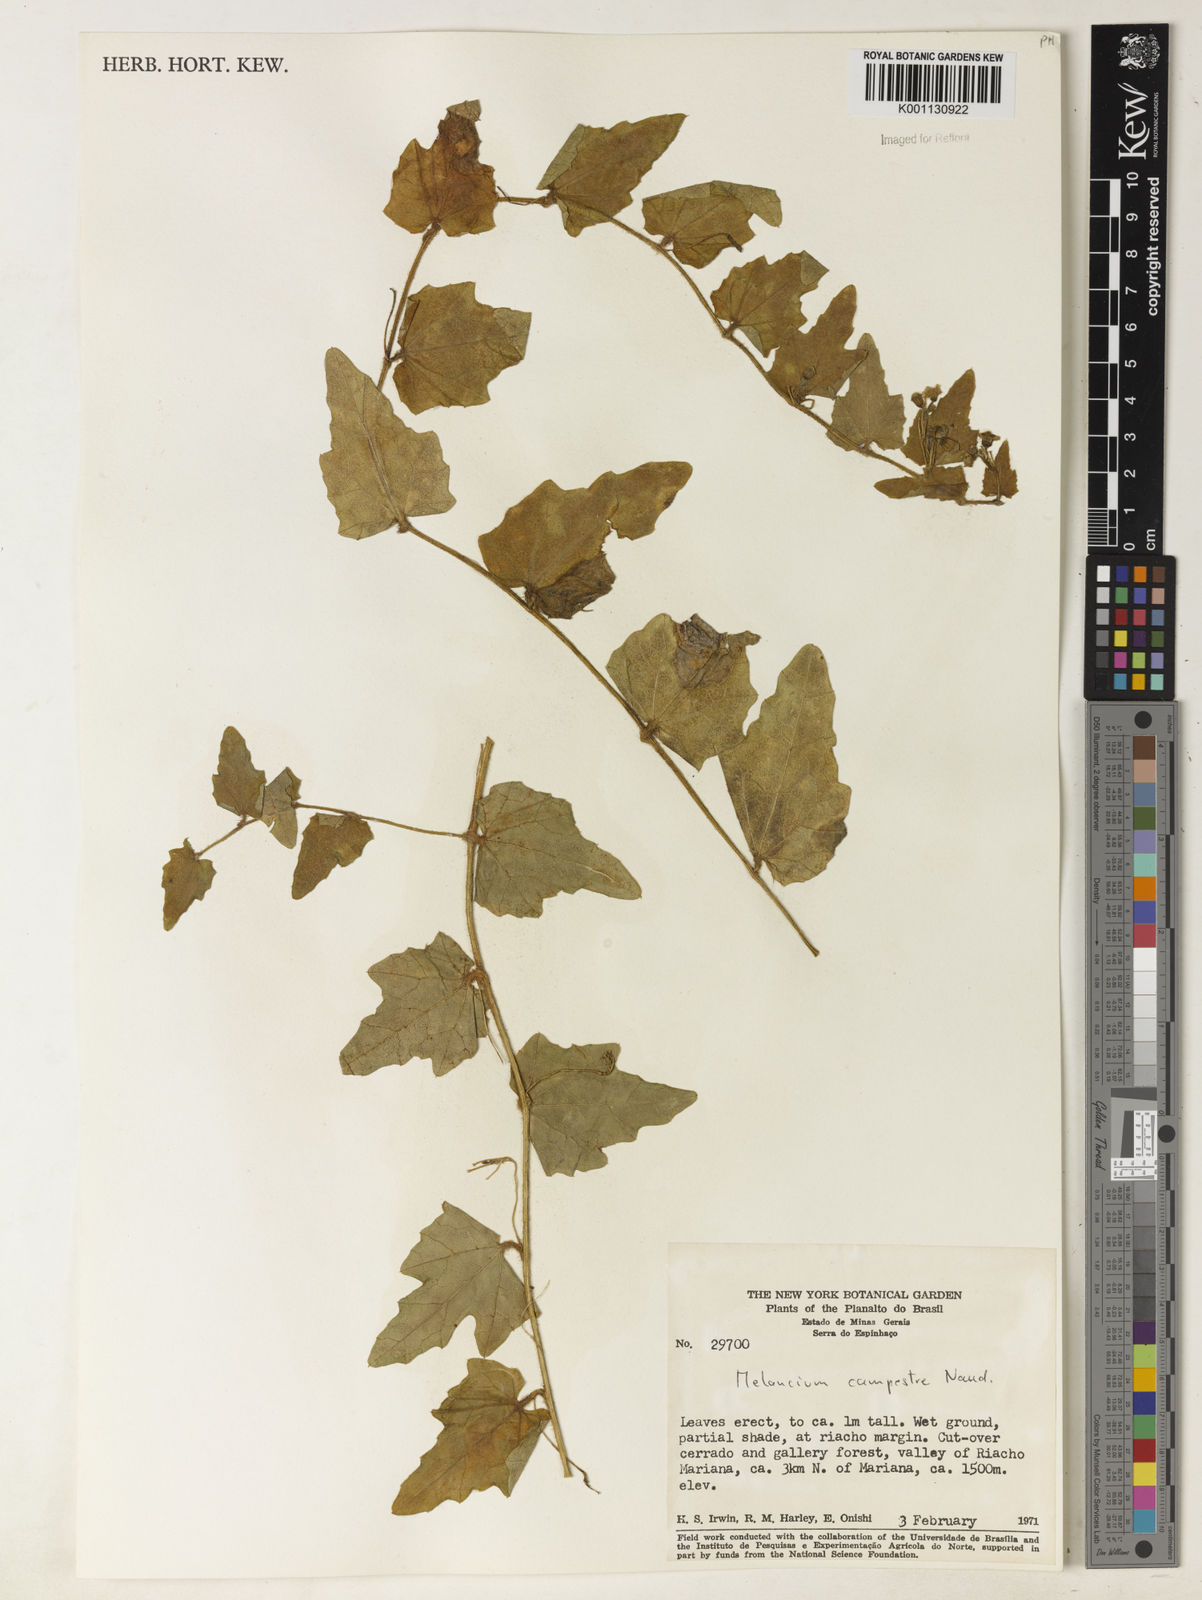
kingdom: Plantae
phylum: Tracheophyta
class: Magnoliopsida
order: Cucurbitales
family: Cucurbitaceae
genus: Melothria
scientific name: Melothria campestris
